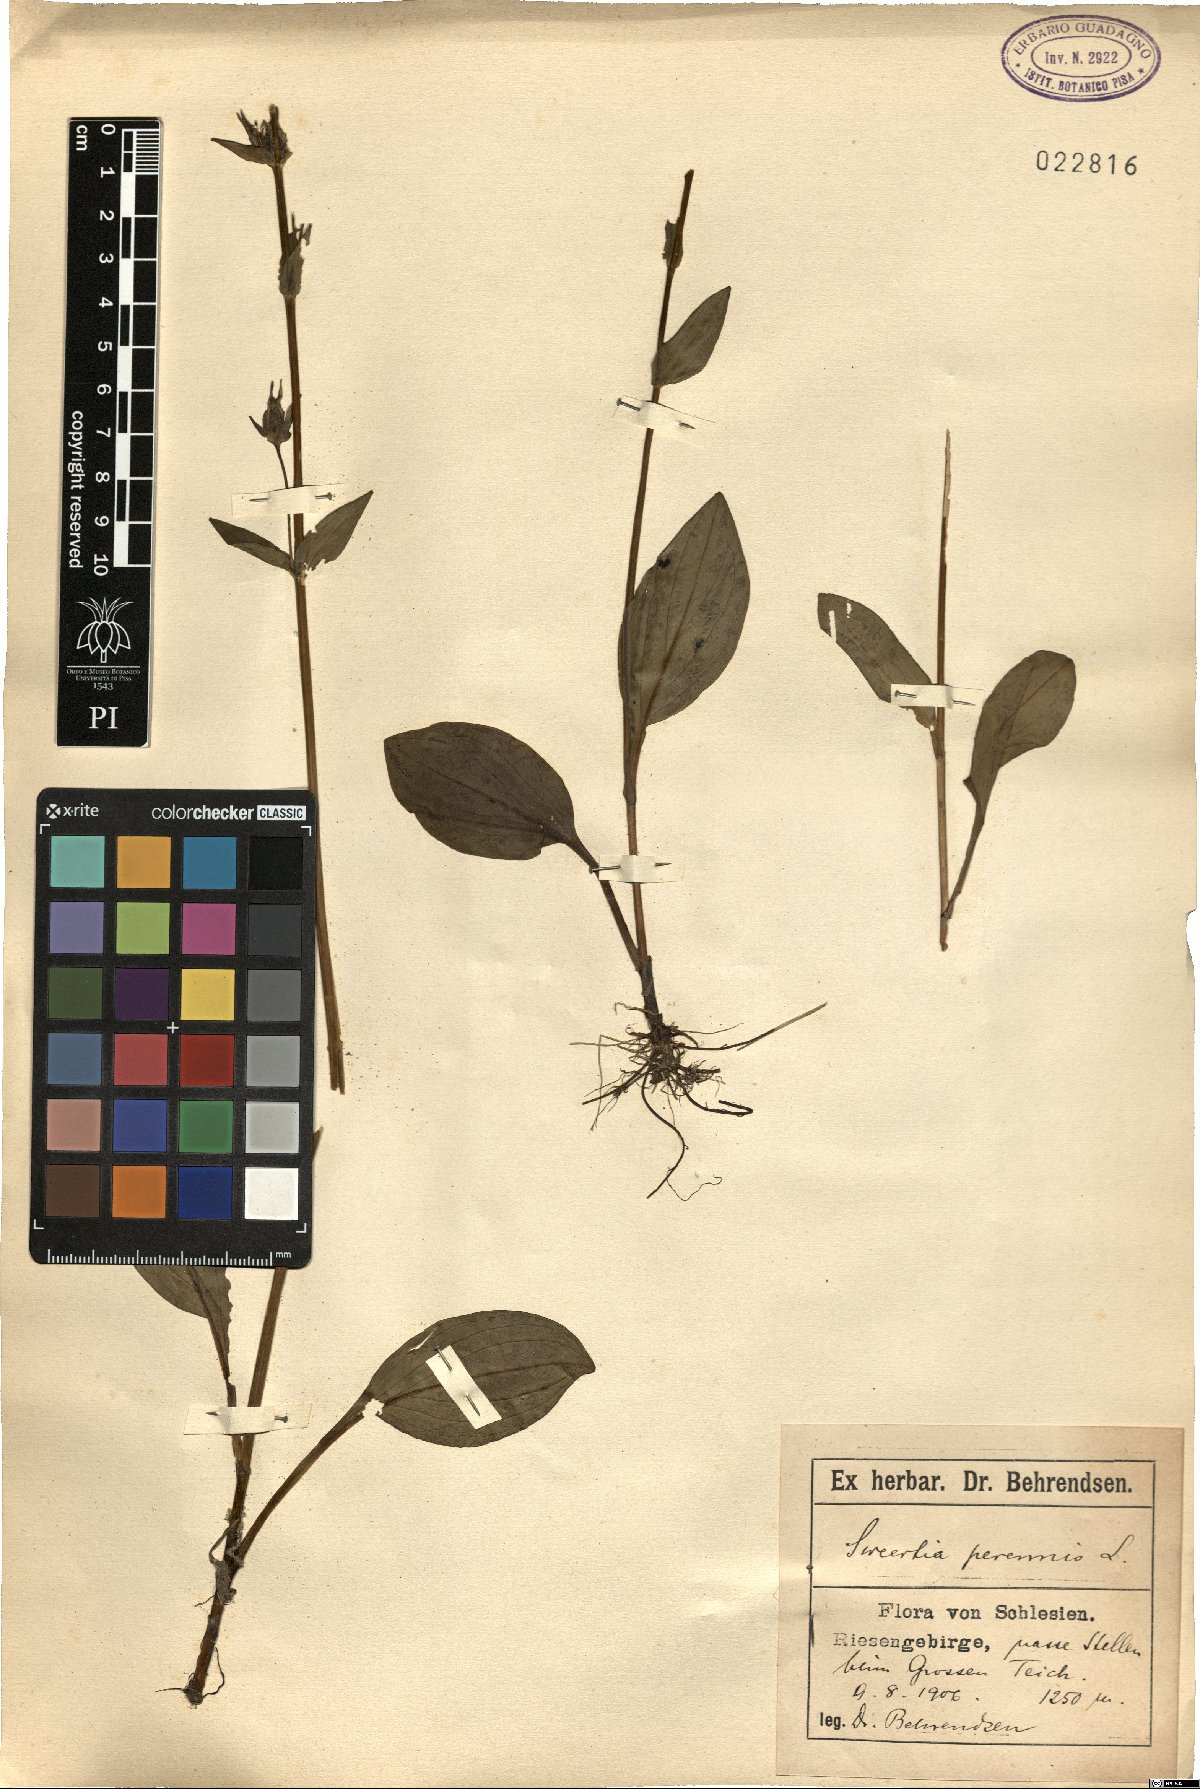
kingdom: Plantae
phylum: Tracheophyta
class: Magnoliopsida
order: Gentianales
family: Gentianaceae
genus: Swertia
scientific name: Swertia perennis
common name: Alpine bog swertia
